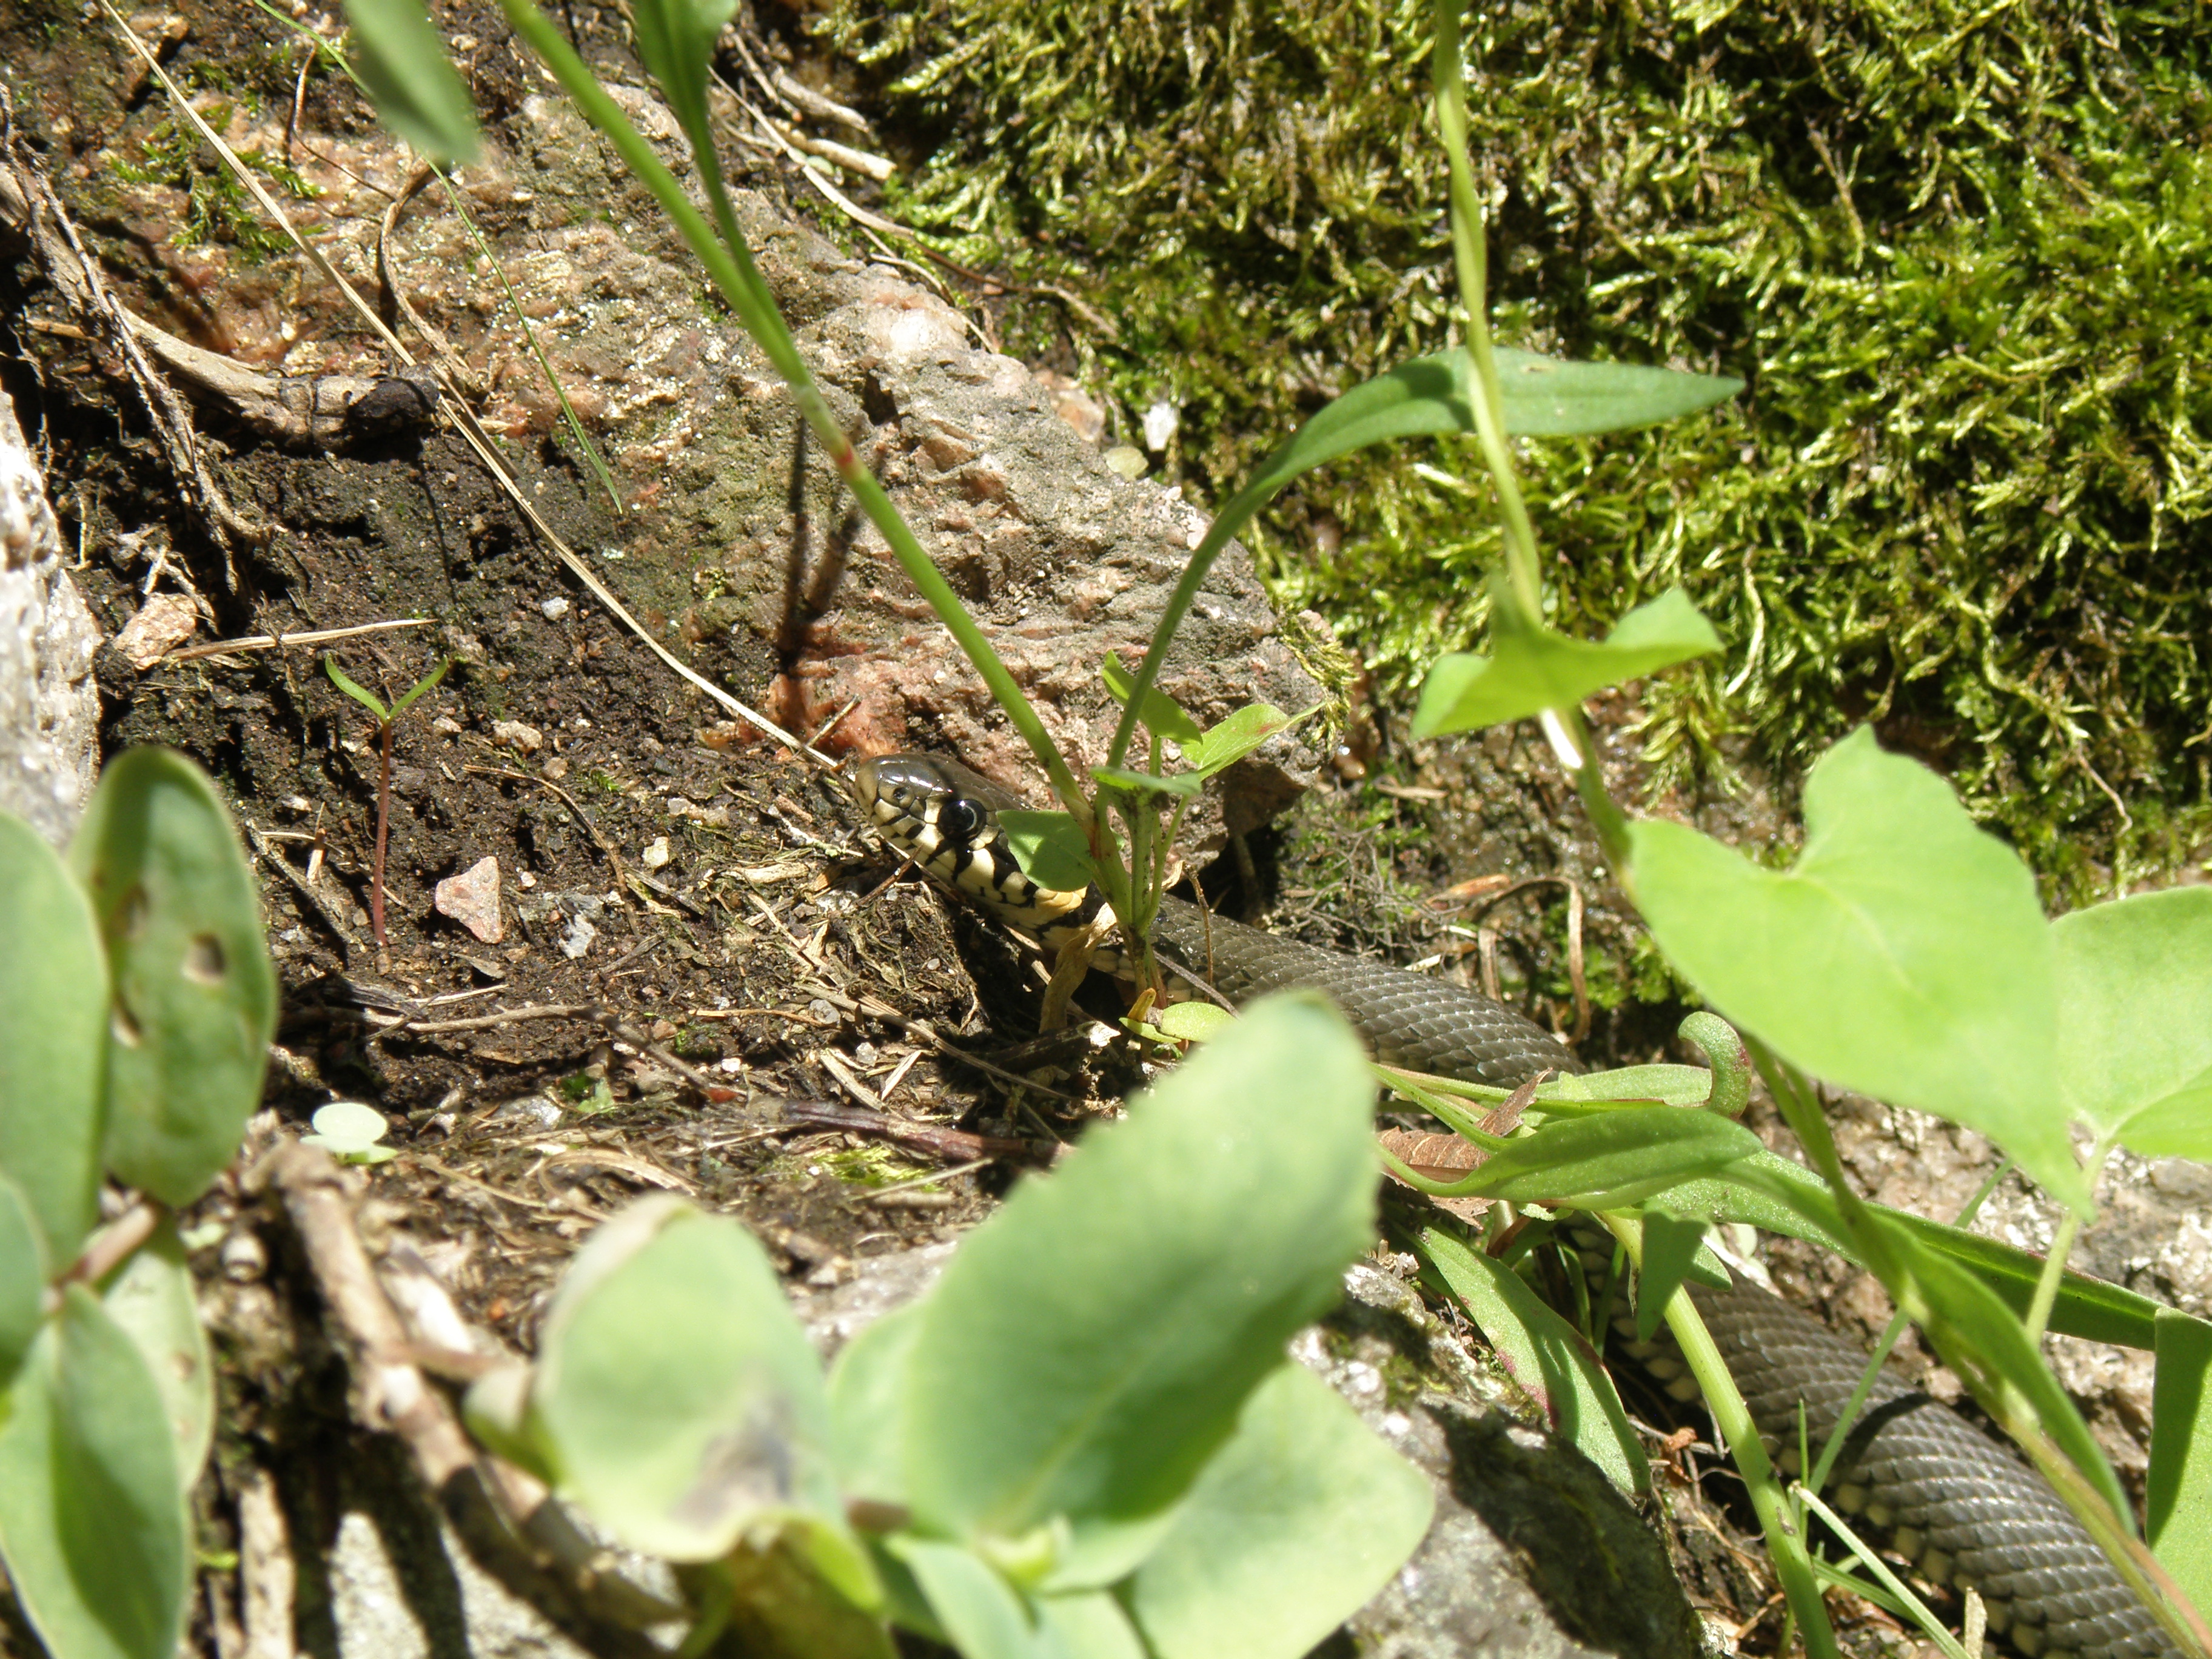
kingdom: Animalia
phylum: Chordata
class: Squamata
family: Colubridae
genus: Natrix
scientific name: Natrix natrix
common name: Grass snake
